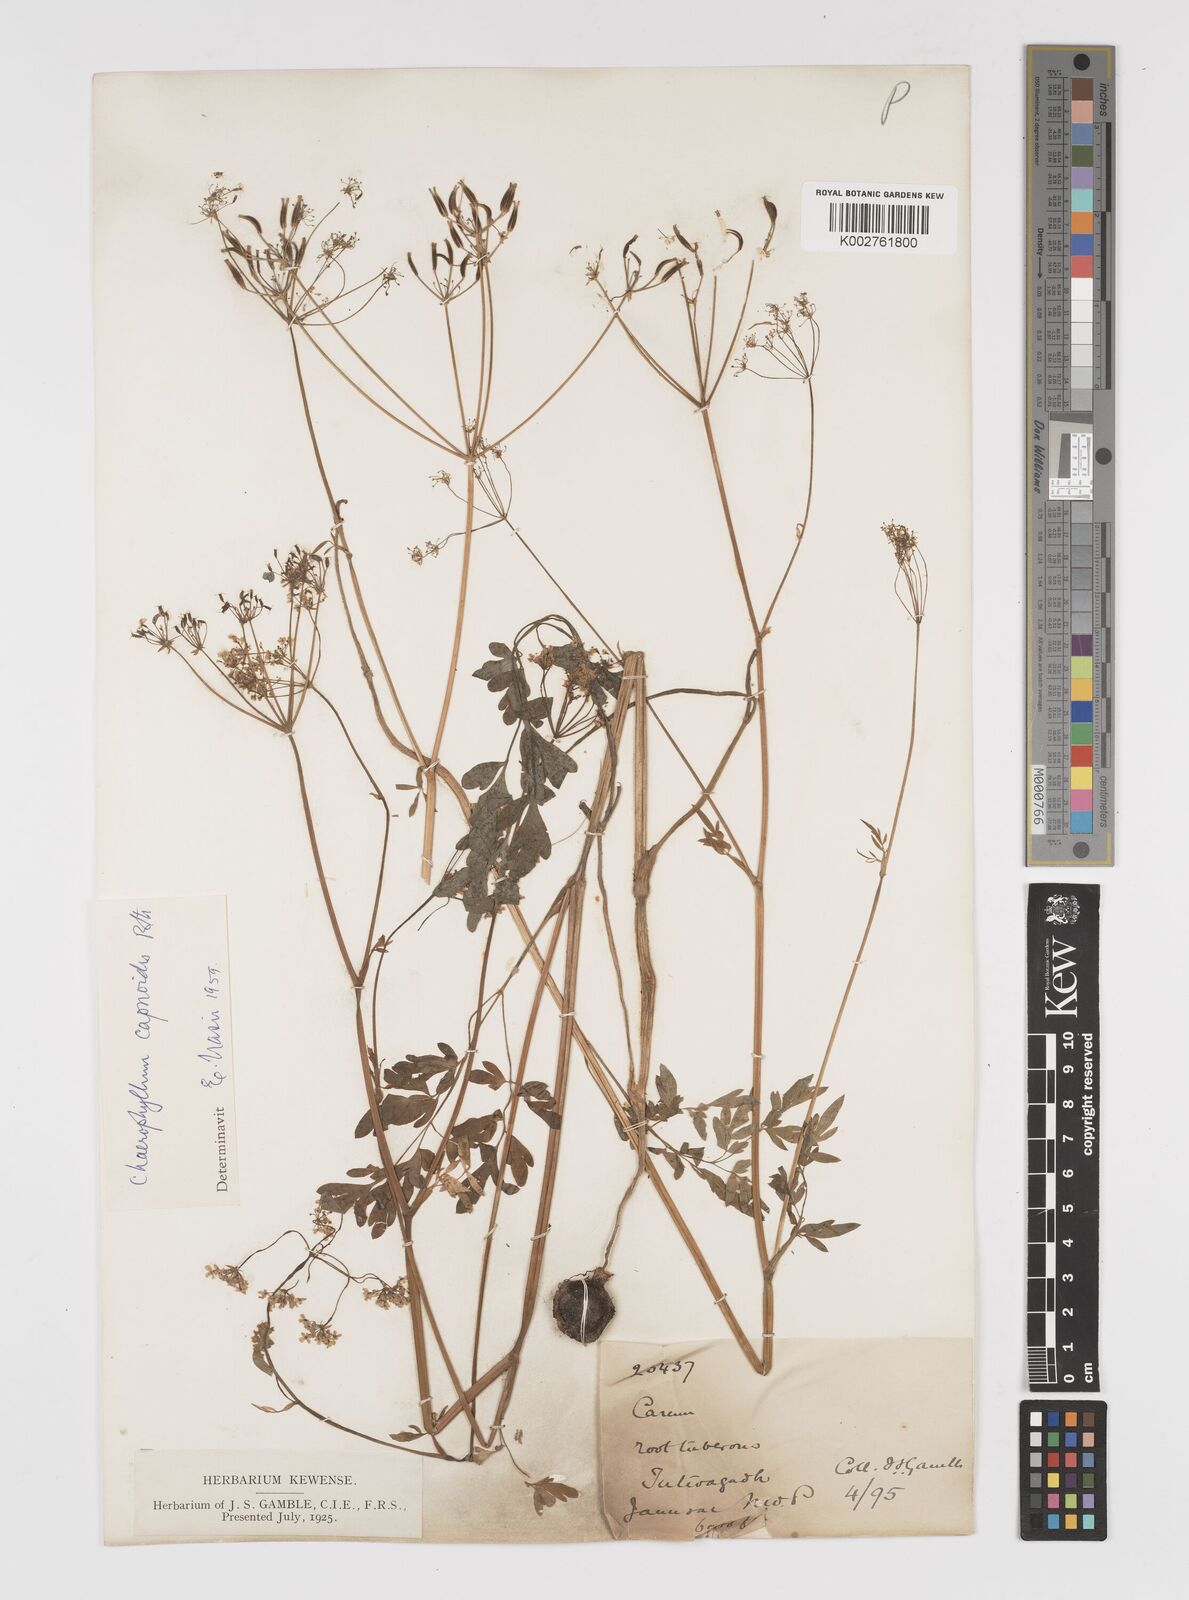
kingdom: Plantae
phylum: Tracheophyta
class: Magnoliopsida
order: Apiales
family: Apiaceae
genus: Kozlovia
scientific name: Kozlovia capnoides
